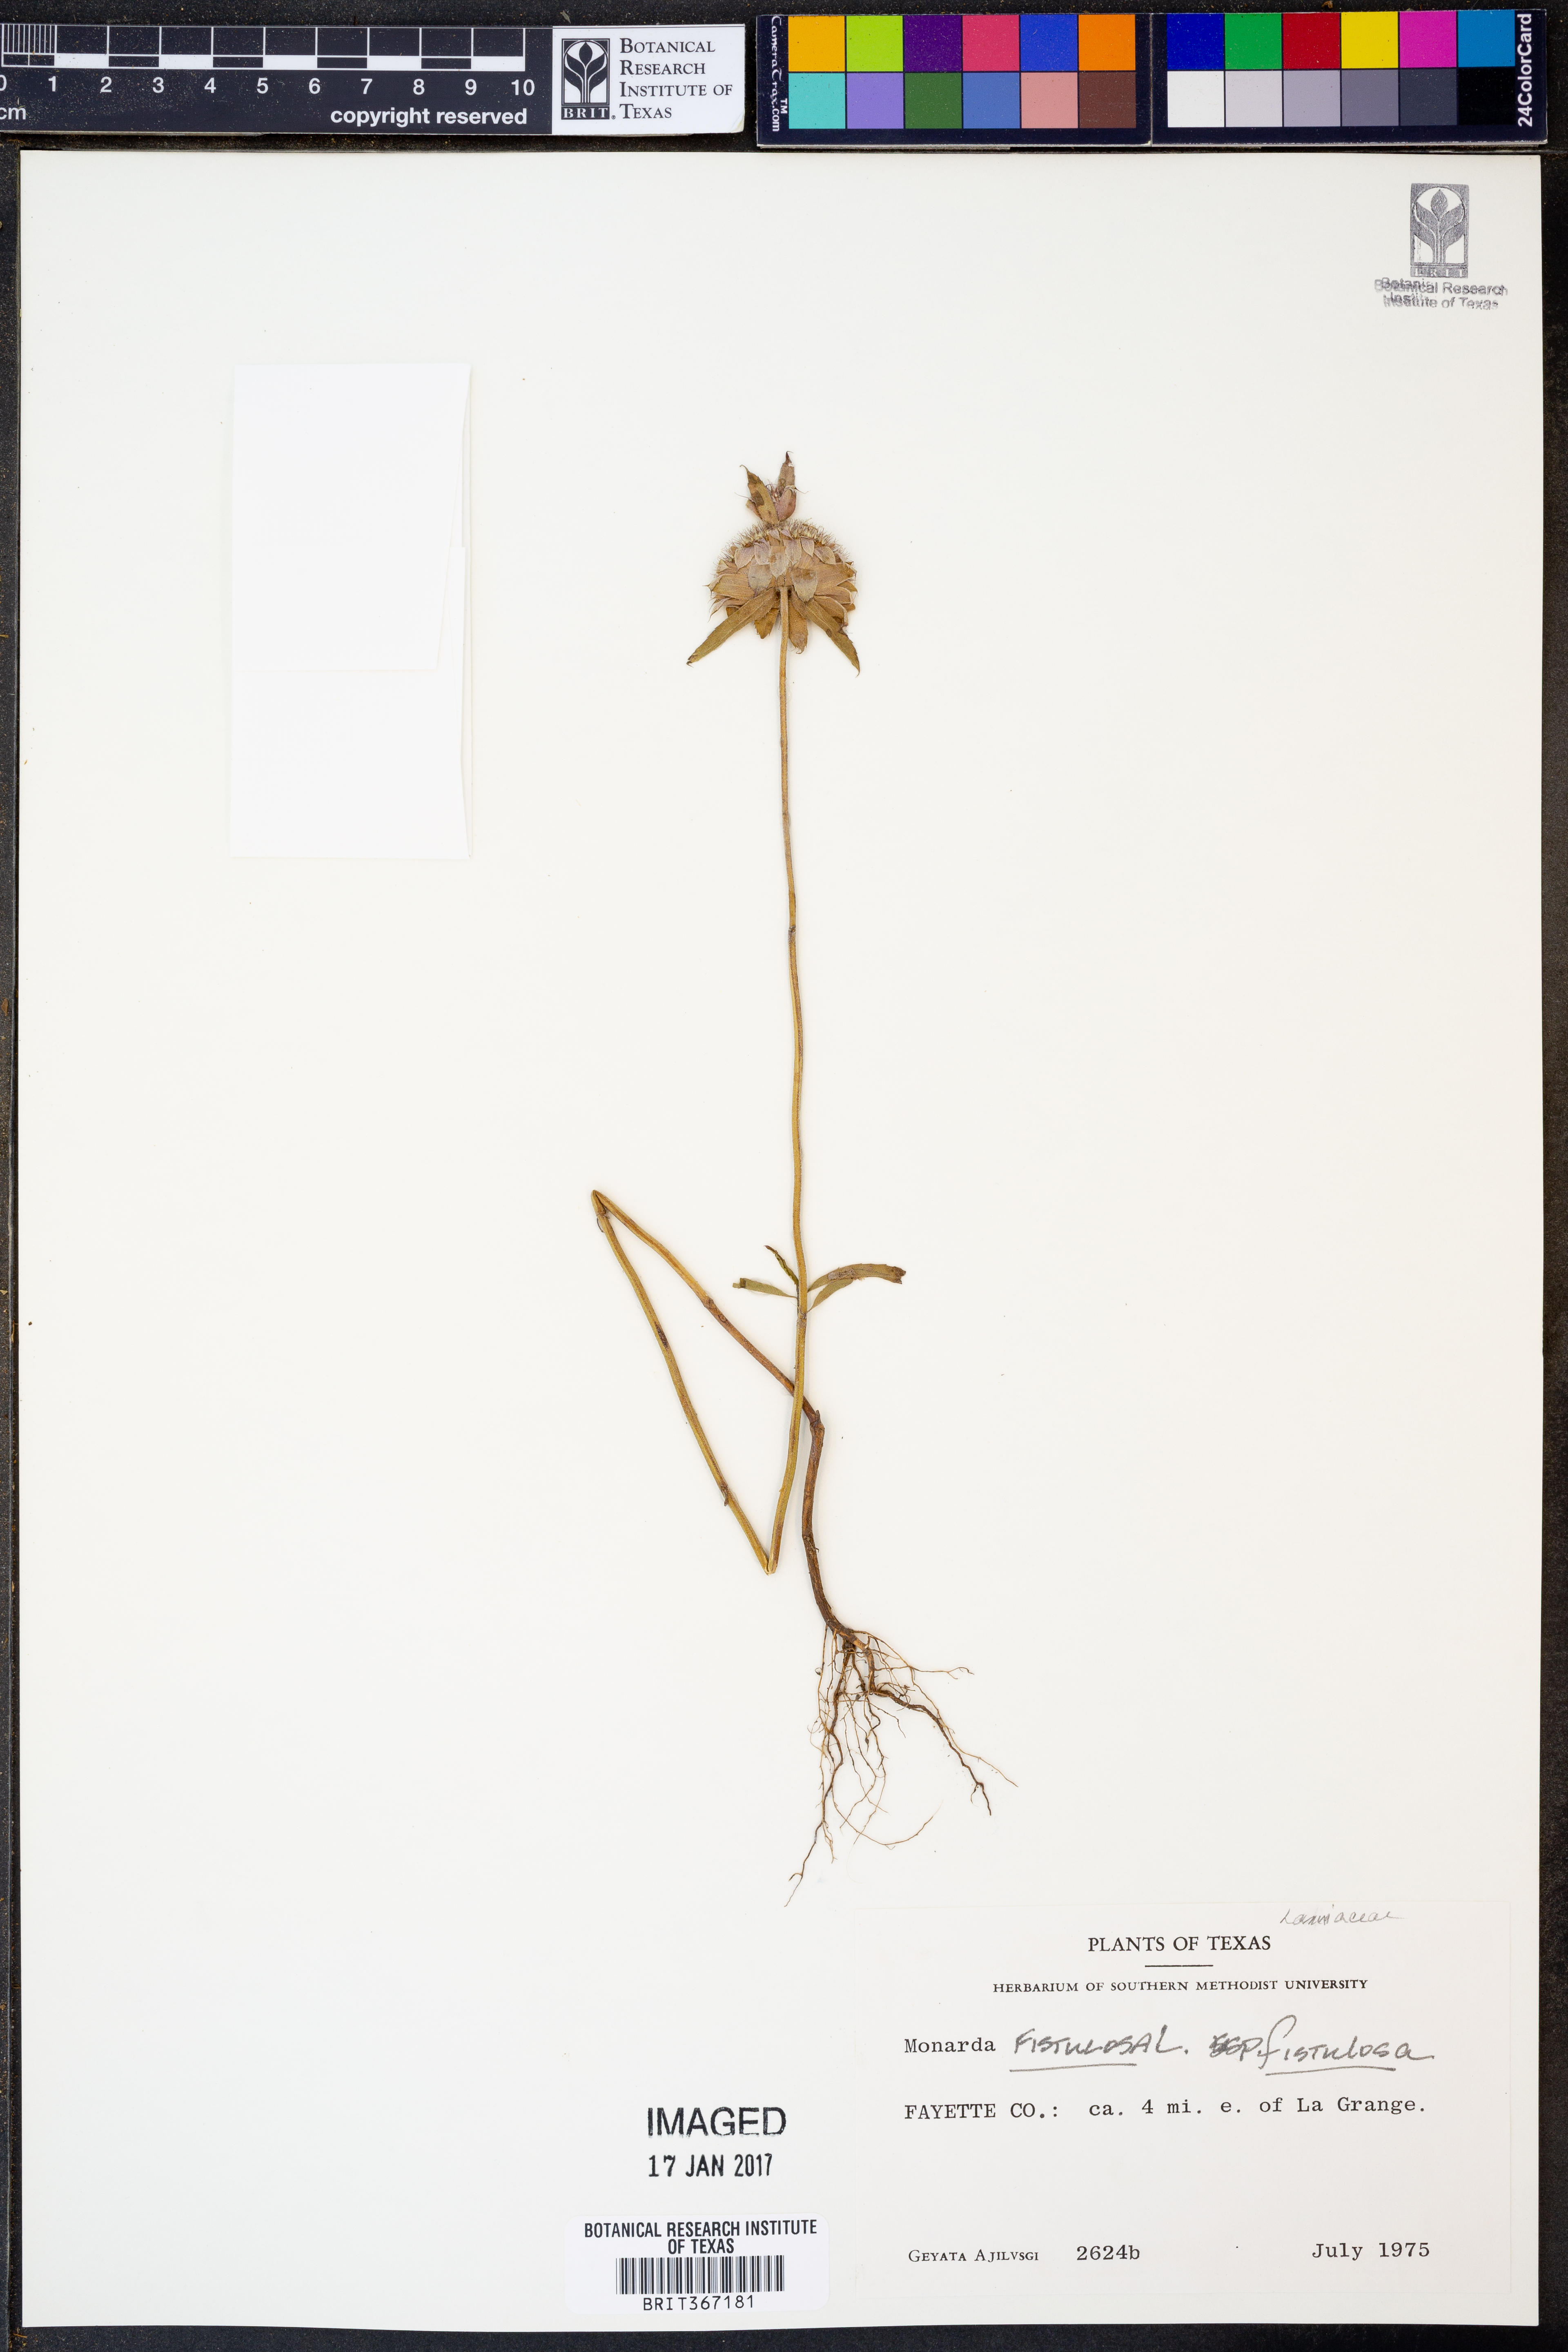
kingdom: Plantae
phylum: Tracheophyta
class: Magnoliopsida
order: Lamiales
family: Lamiaceae
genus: Monarda
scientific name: Monarda fistulosa
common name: Purple beebalm
